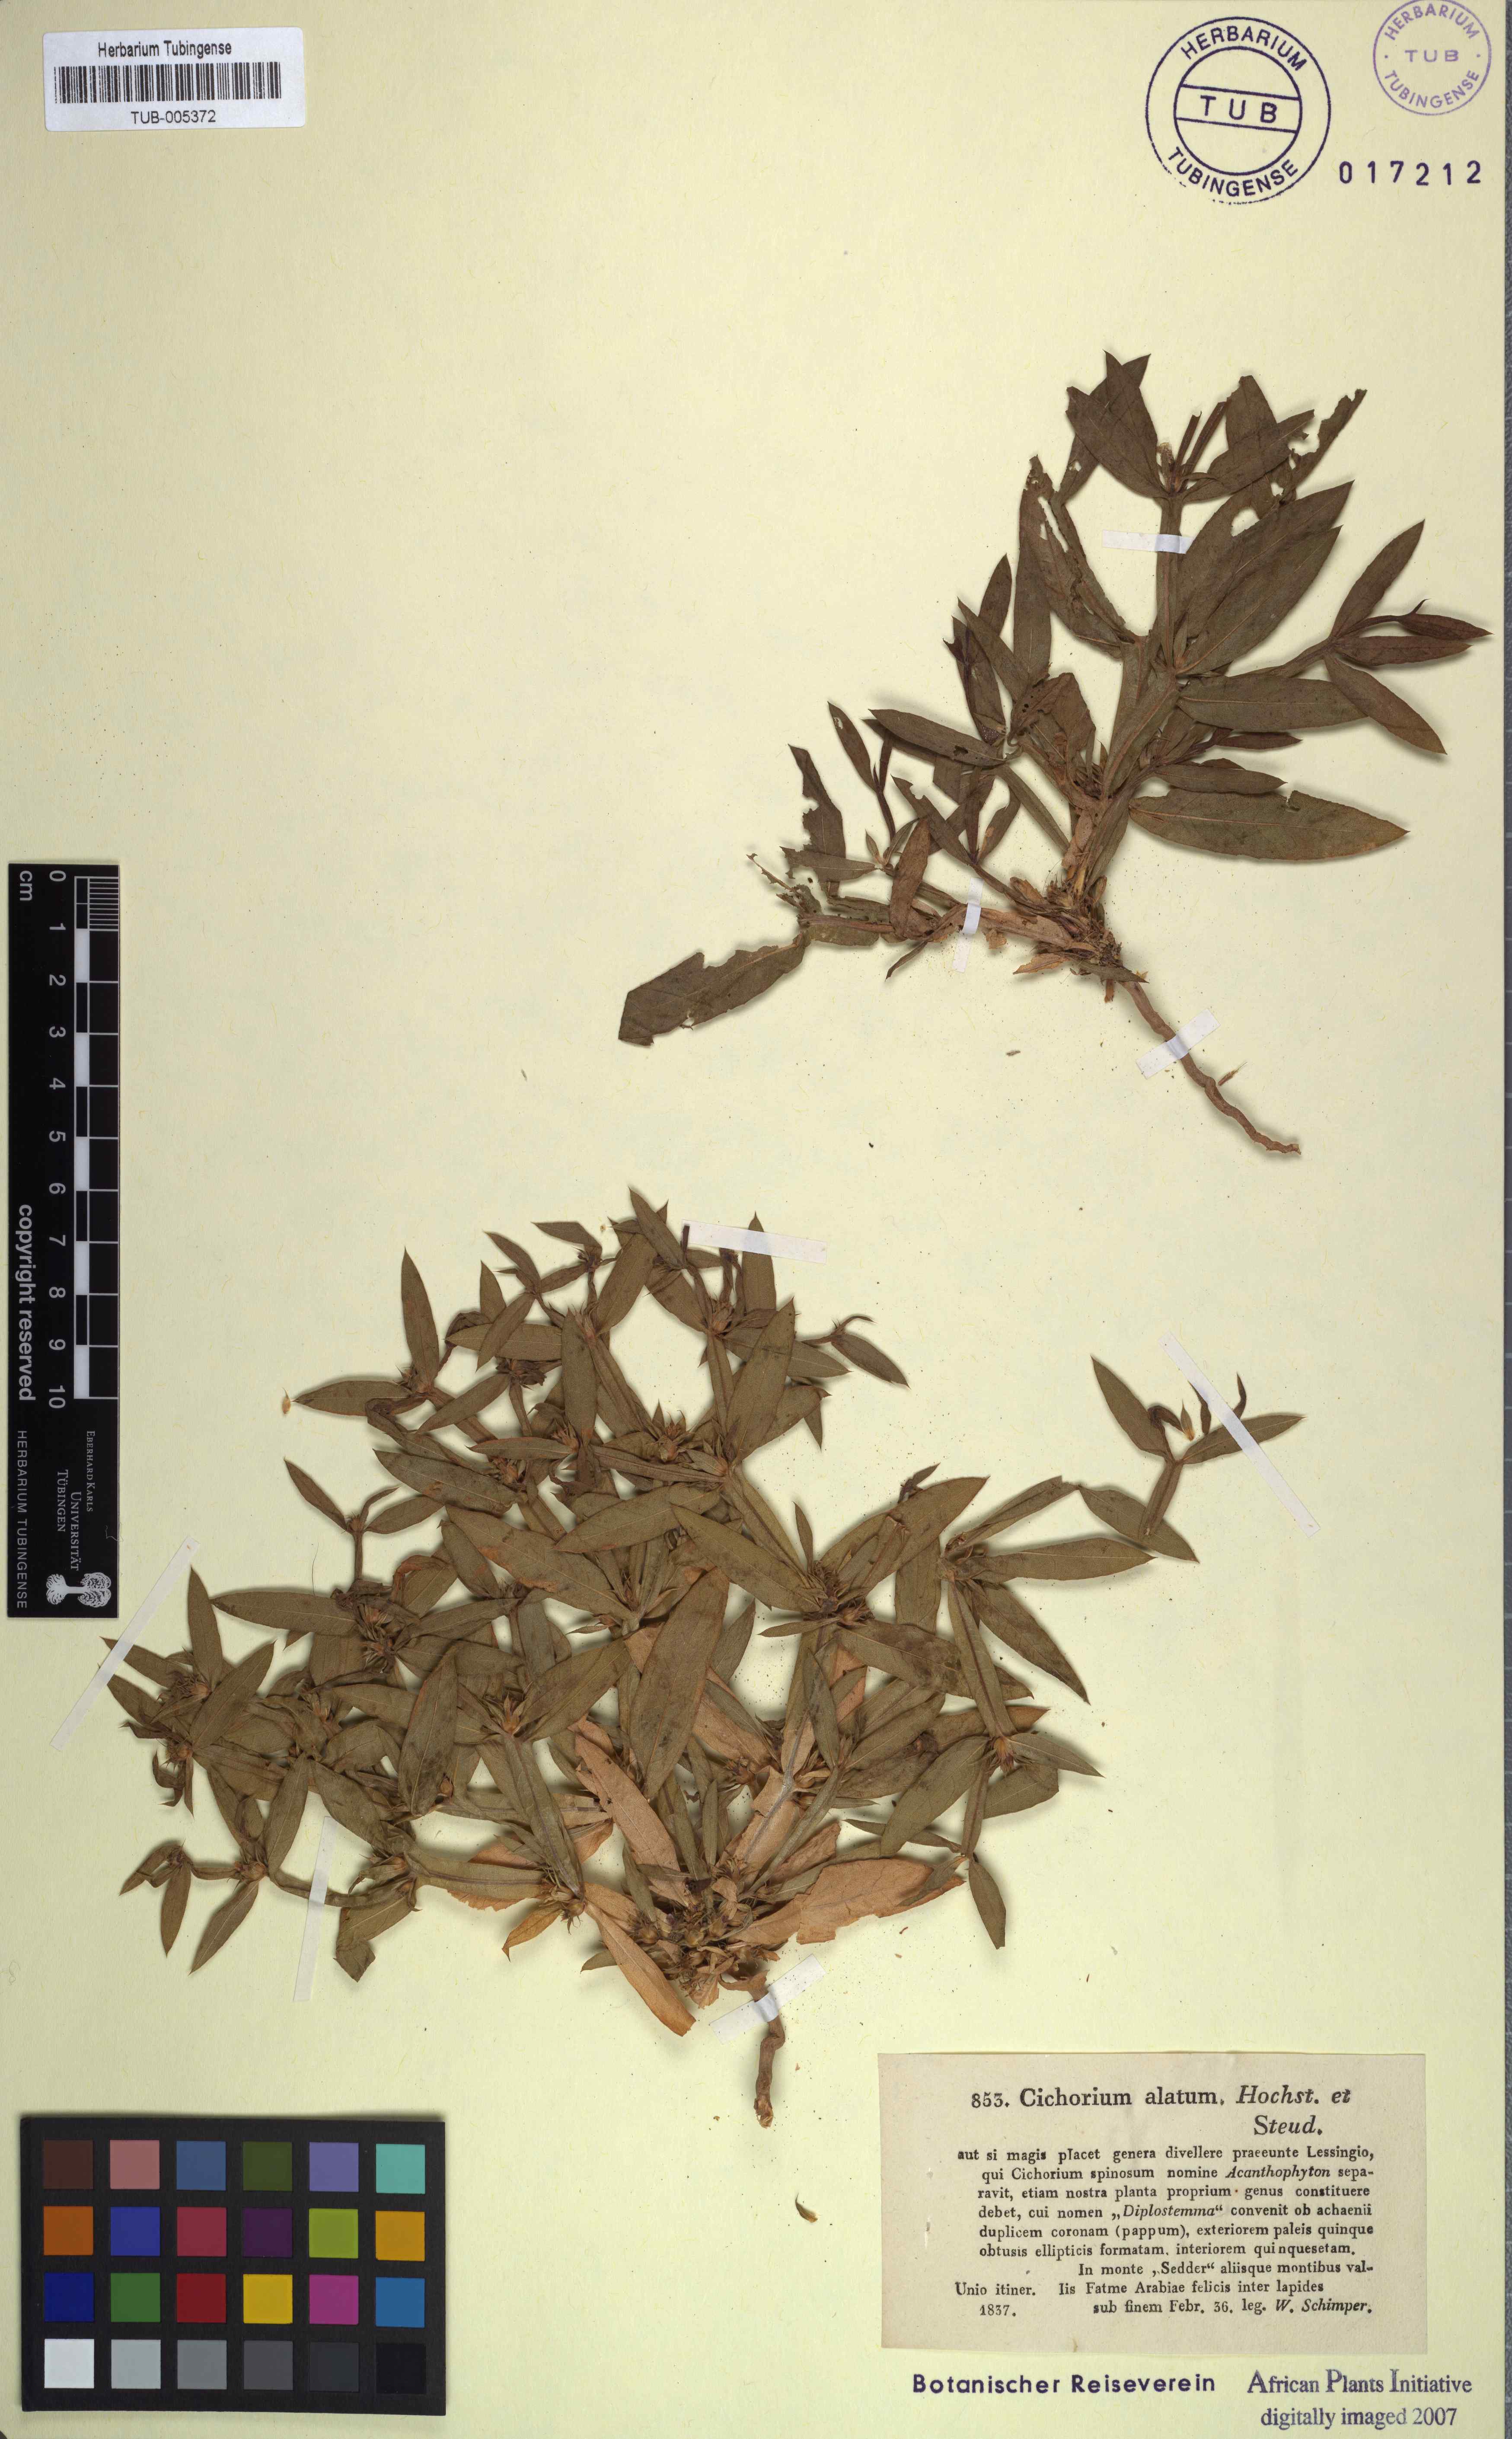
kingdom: Plantae
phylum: Tracheophyta
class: Magnoliopsida
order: Asterales
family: Asteraceae
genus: Geigeria
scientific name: Geigeria alata
